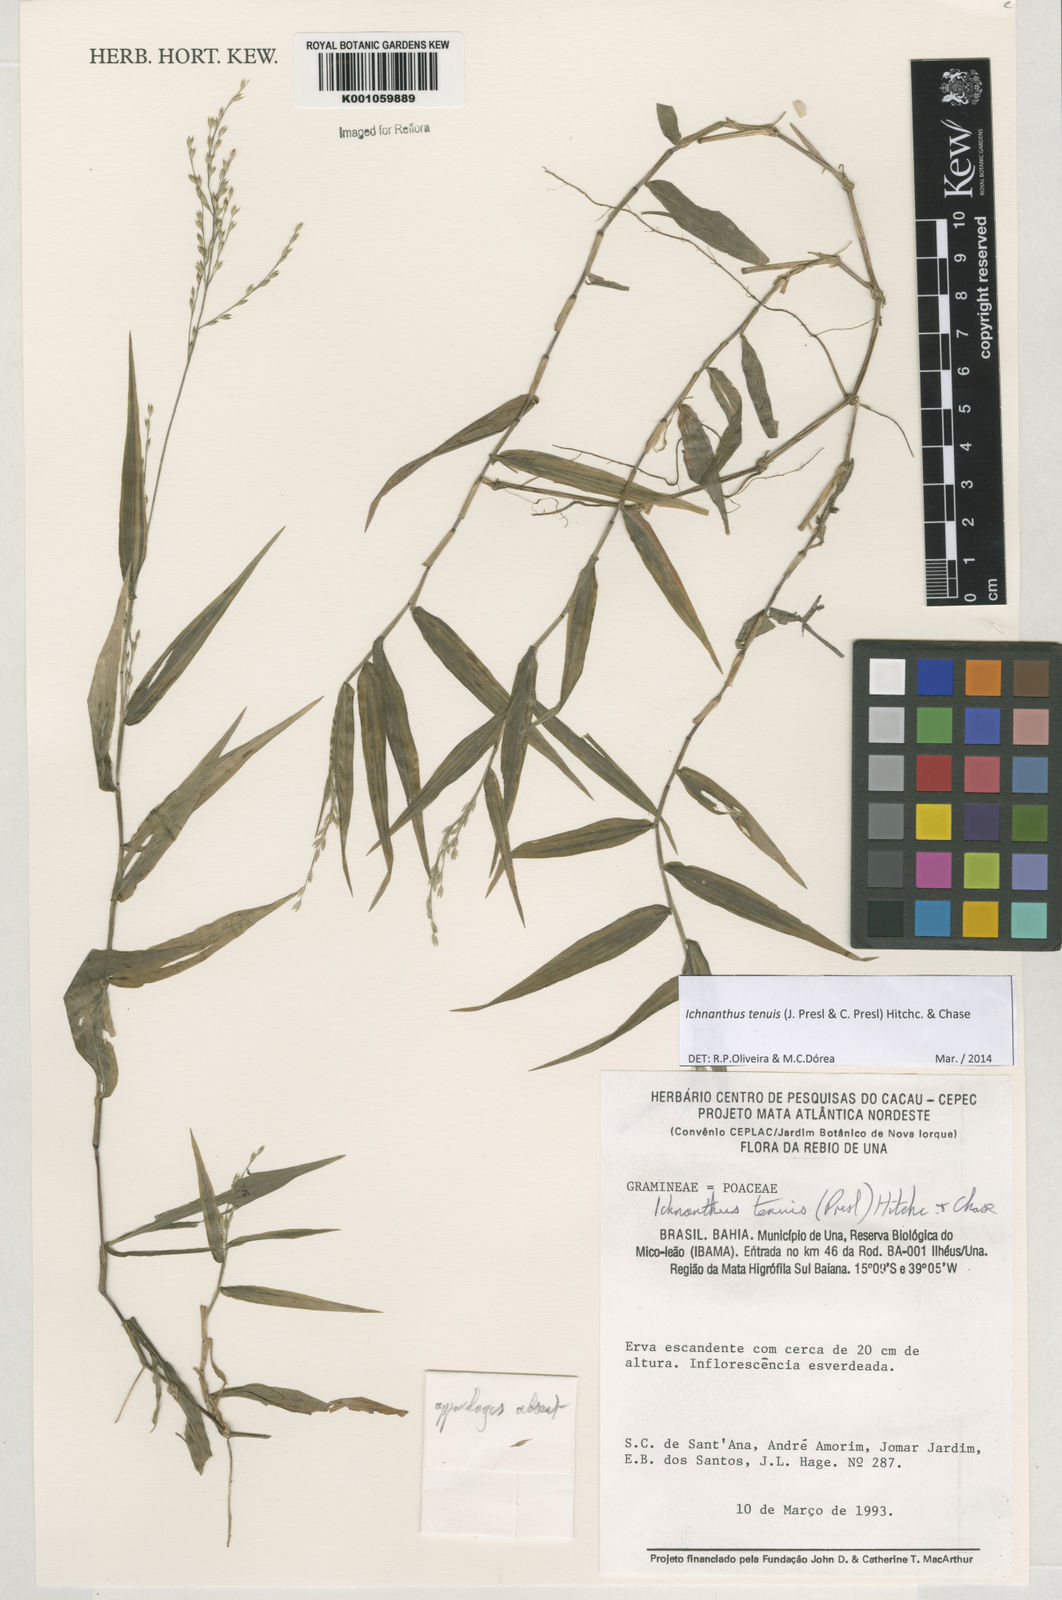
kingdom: Plantae
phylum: Tracheophyta
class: Liliopsida
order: Poales
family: Poaceae
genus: Ichnanthus
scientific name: Ichnanthus tenuis
